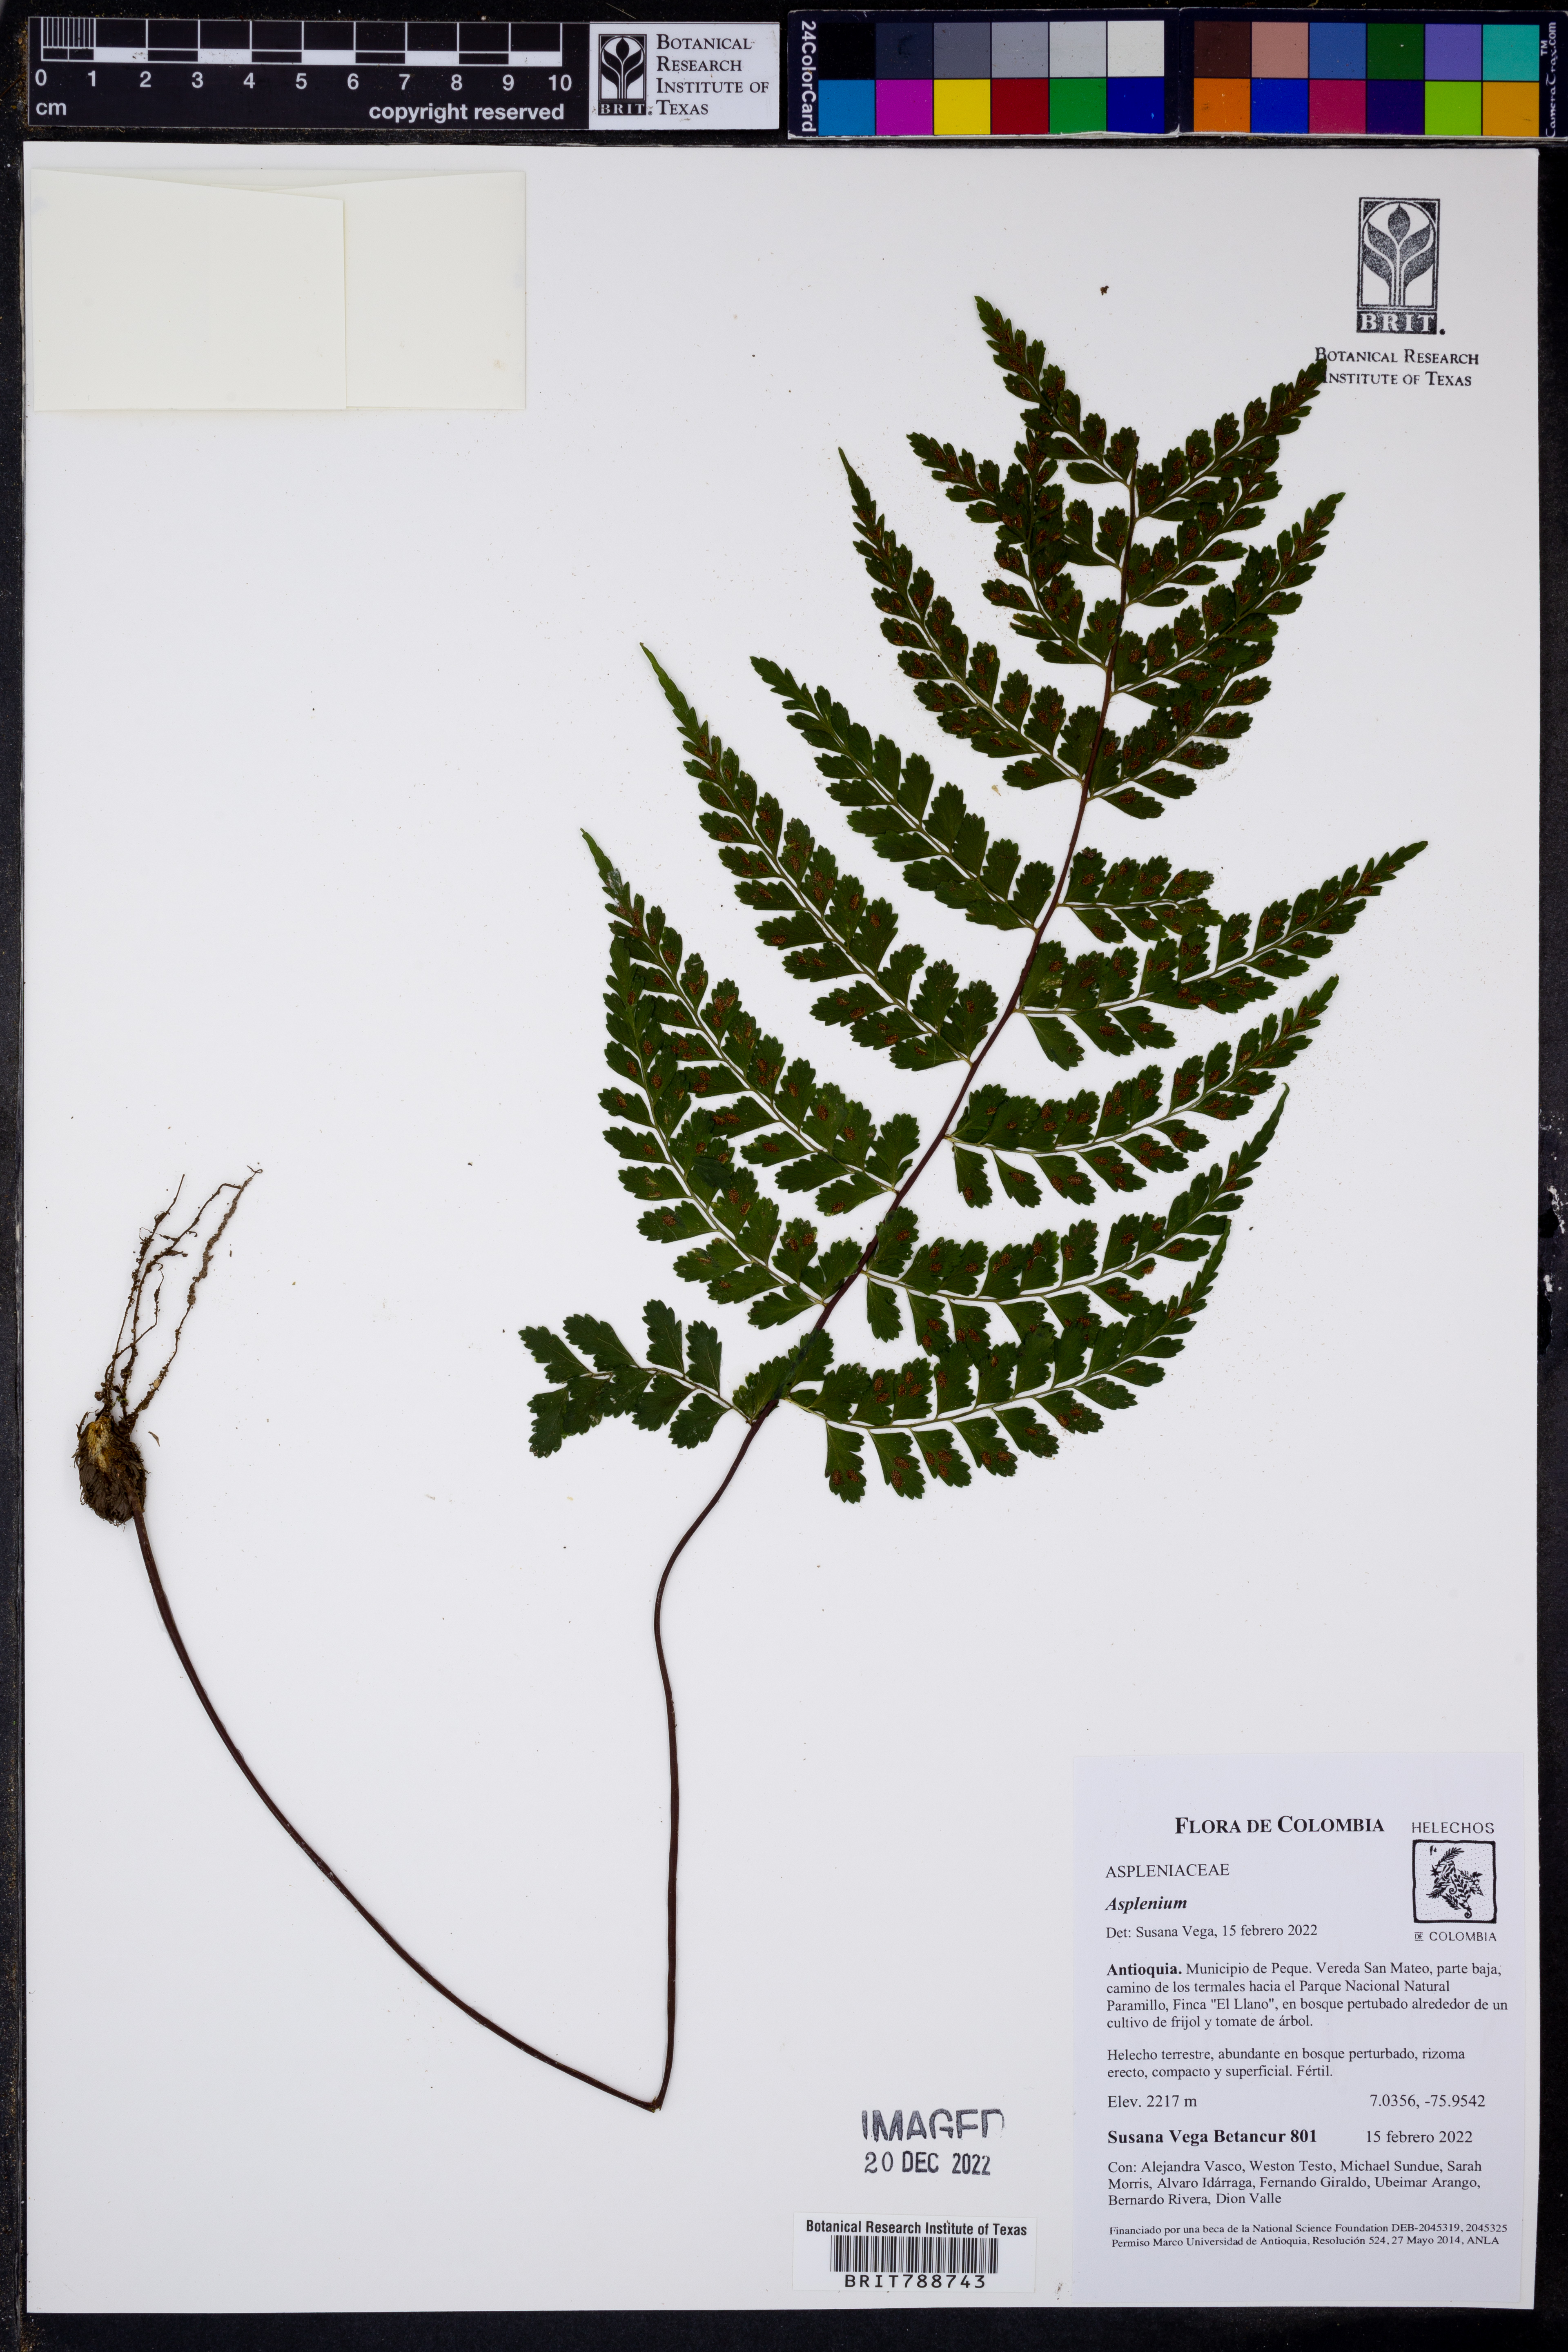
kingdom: Plantae
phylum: Tracheophyta
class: Polypodiopsida
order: Polypodiales
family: Aspleniaceae
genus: Asplenium
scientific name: Asplenium
